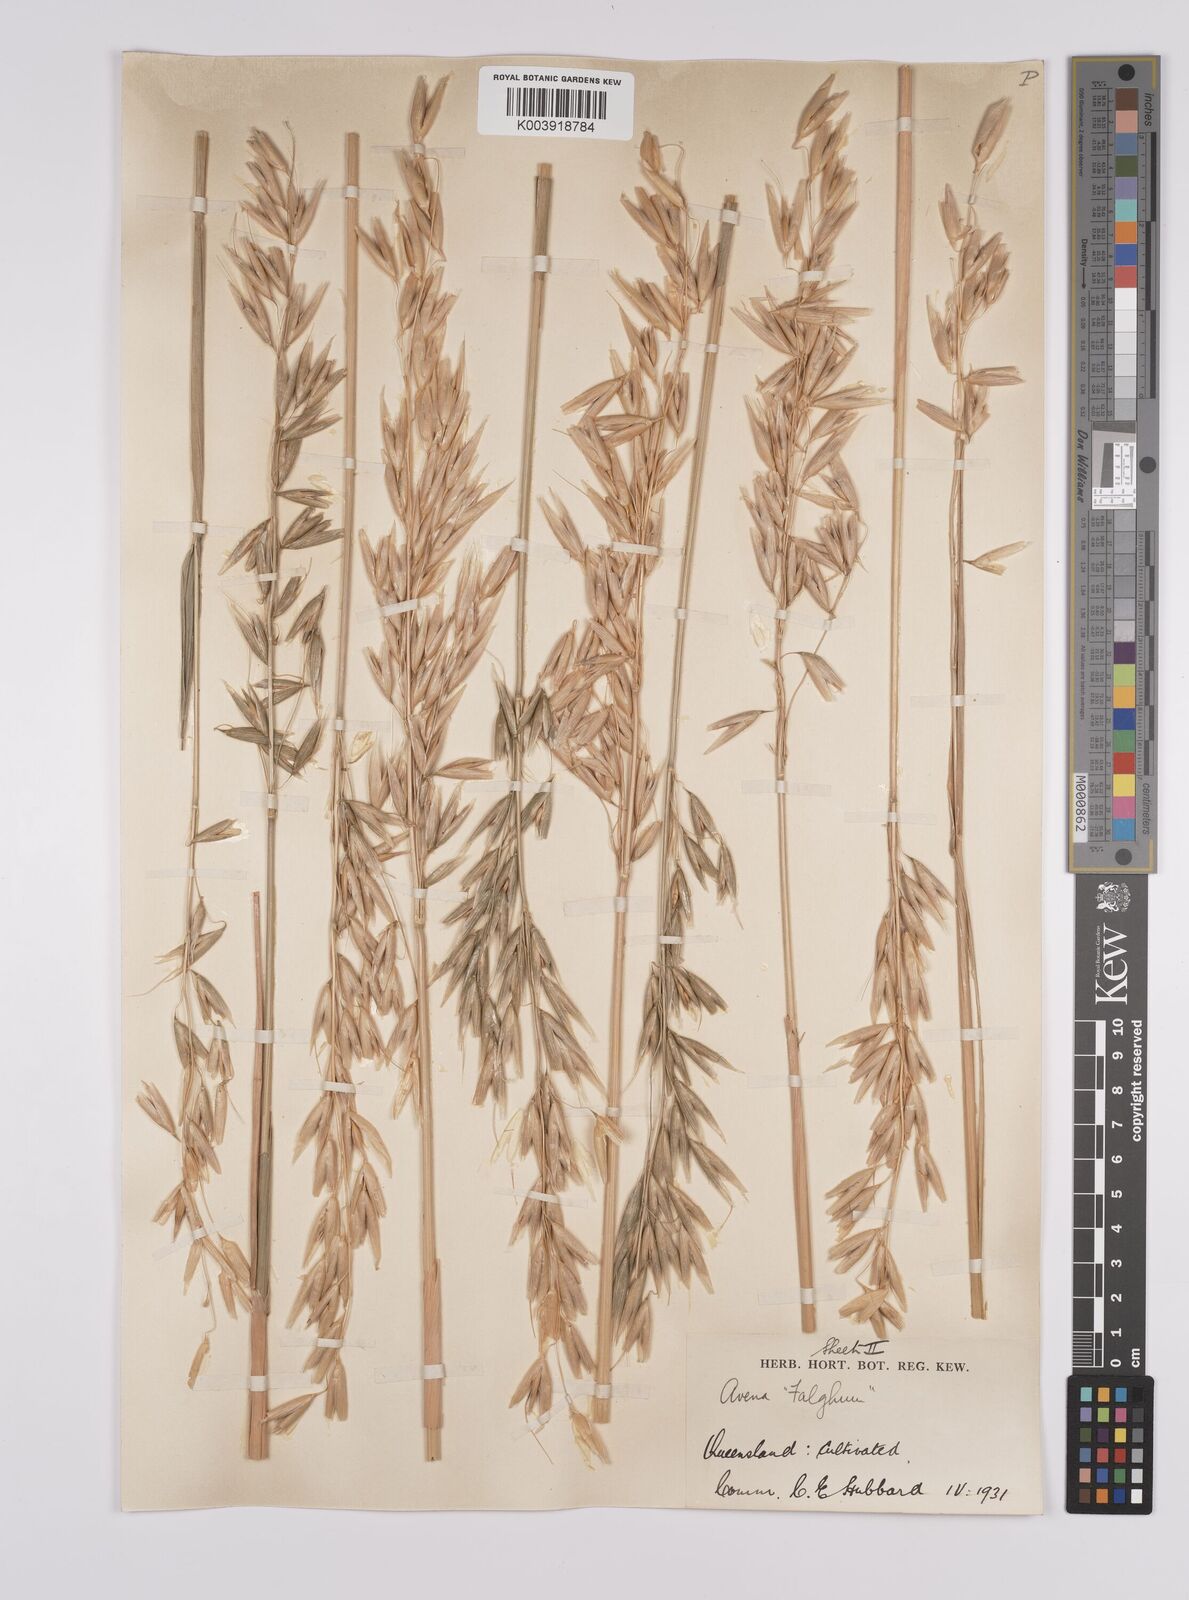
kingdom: Plantae
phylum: Tracheophyta
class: Liliopsida
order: Poales
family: Poaceae
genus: Avena
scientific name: Avena sativa
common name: Oat
